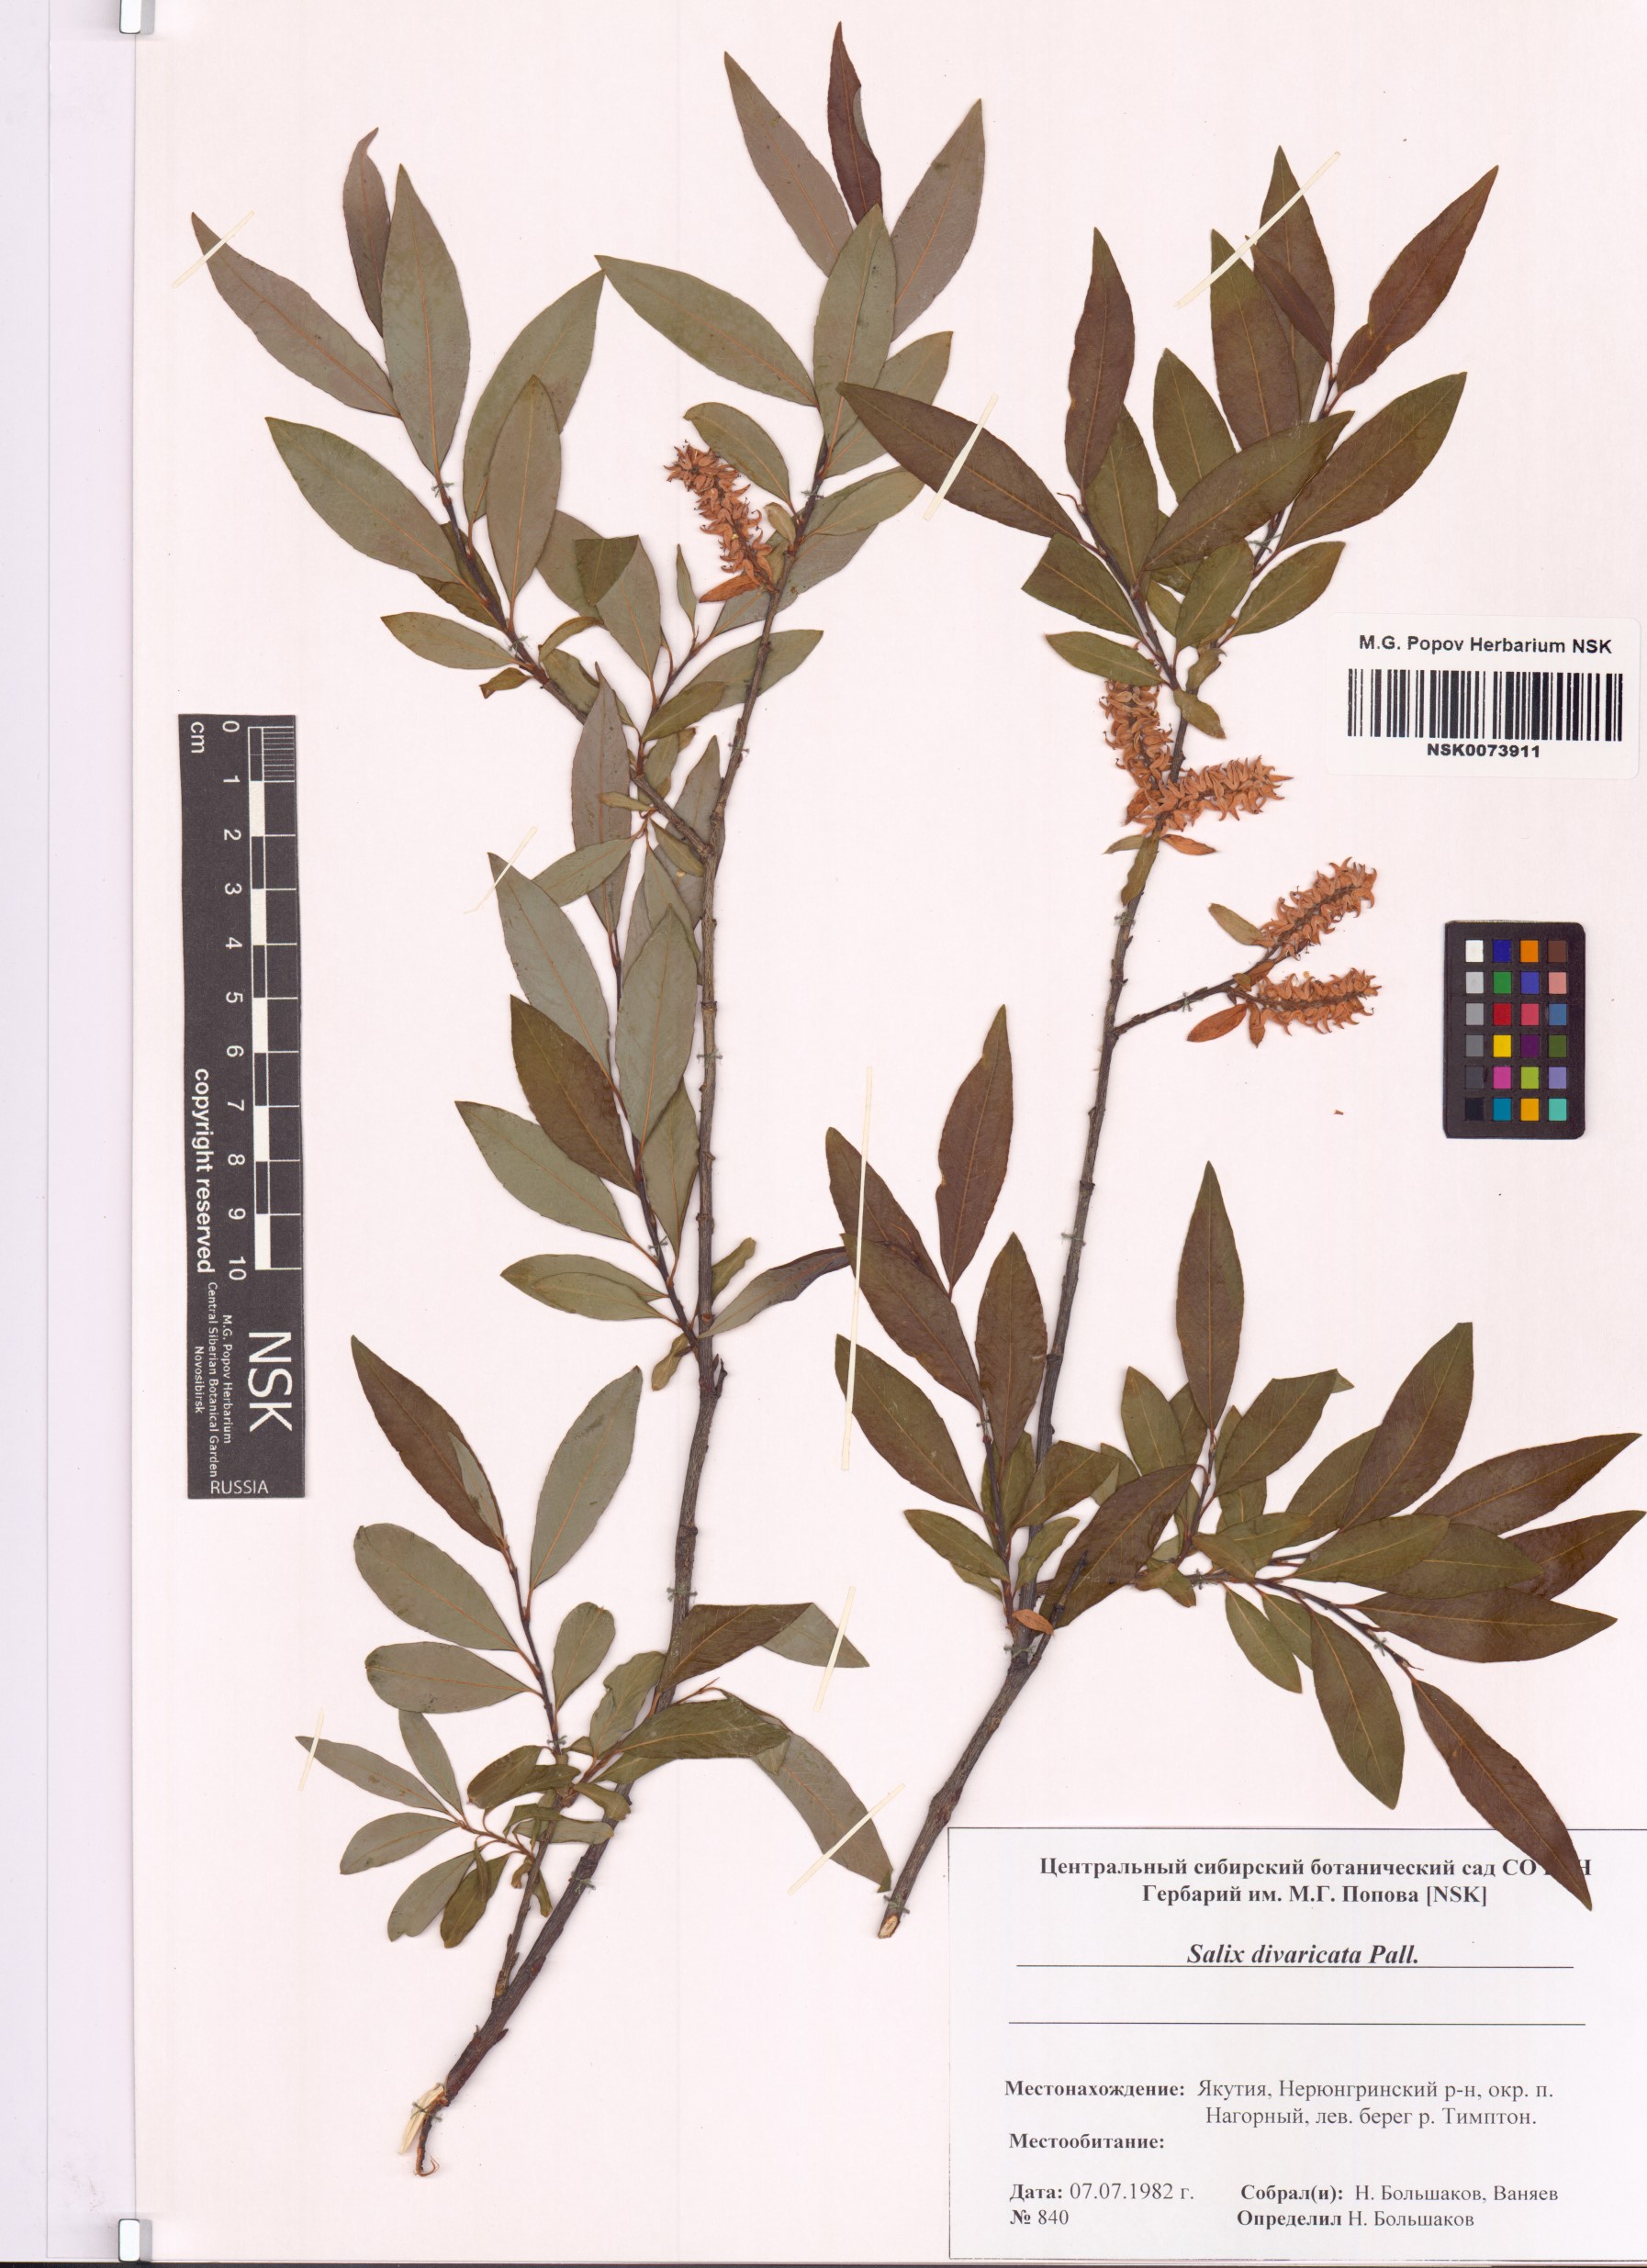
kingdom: Plantae
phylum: Tracheophyta
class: Magnoliopsida
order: Malpighiales
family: Salicaceae
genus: Salix
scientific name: Salix divaricata
